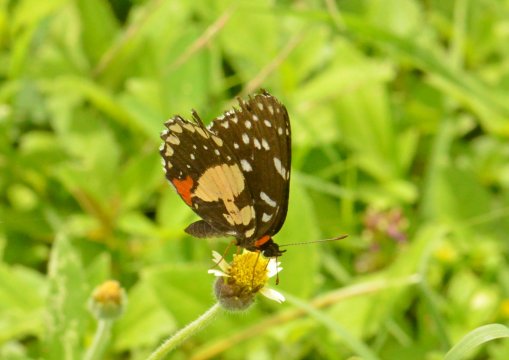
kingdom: Animalia
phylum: Arthropoda
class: Insecta
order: Lepidoptera
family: Nymphalidae
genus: Chlosyne
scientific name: Chlosyne rosita
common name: Rosita Patch
